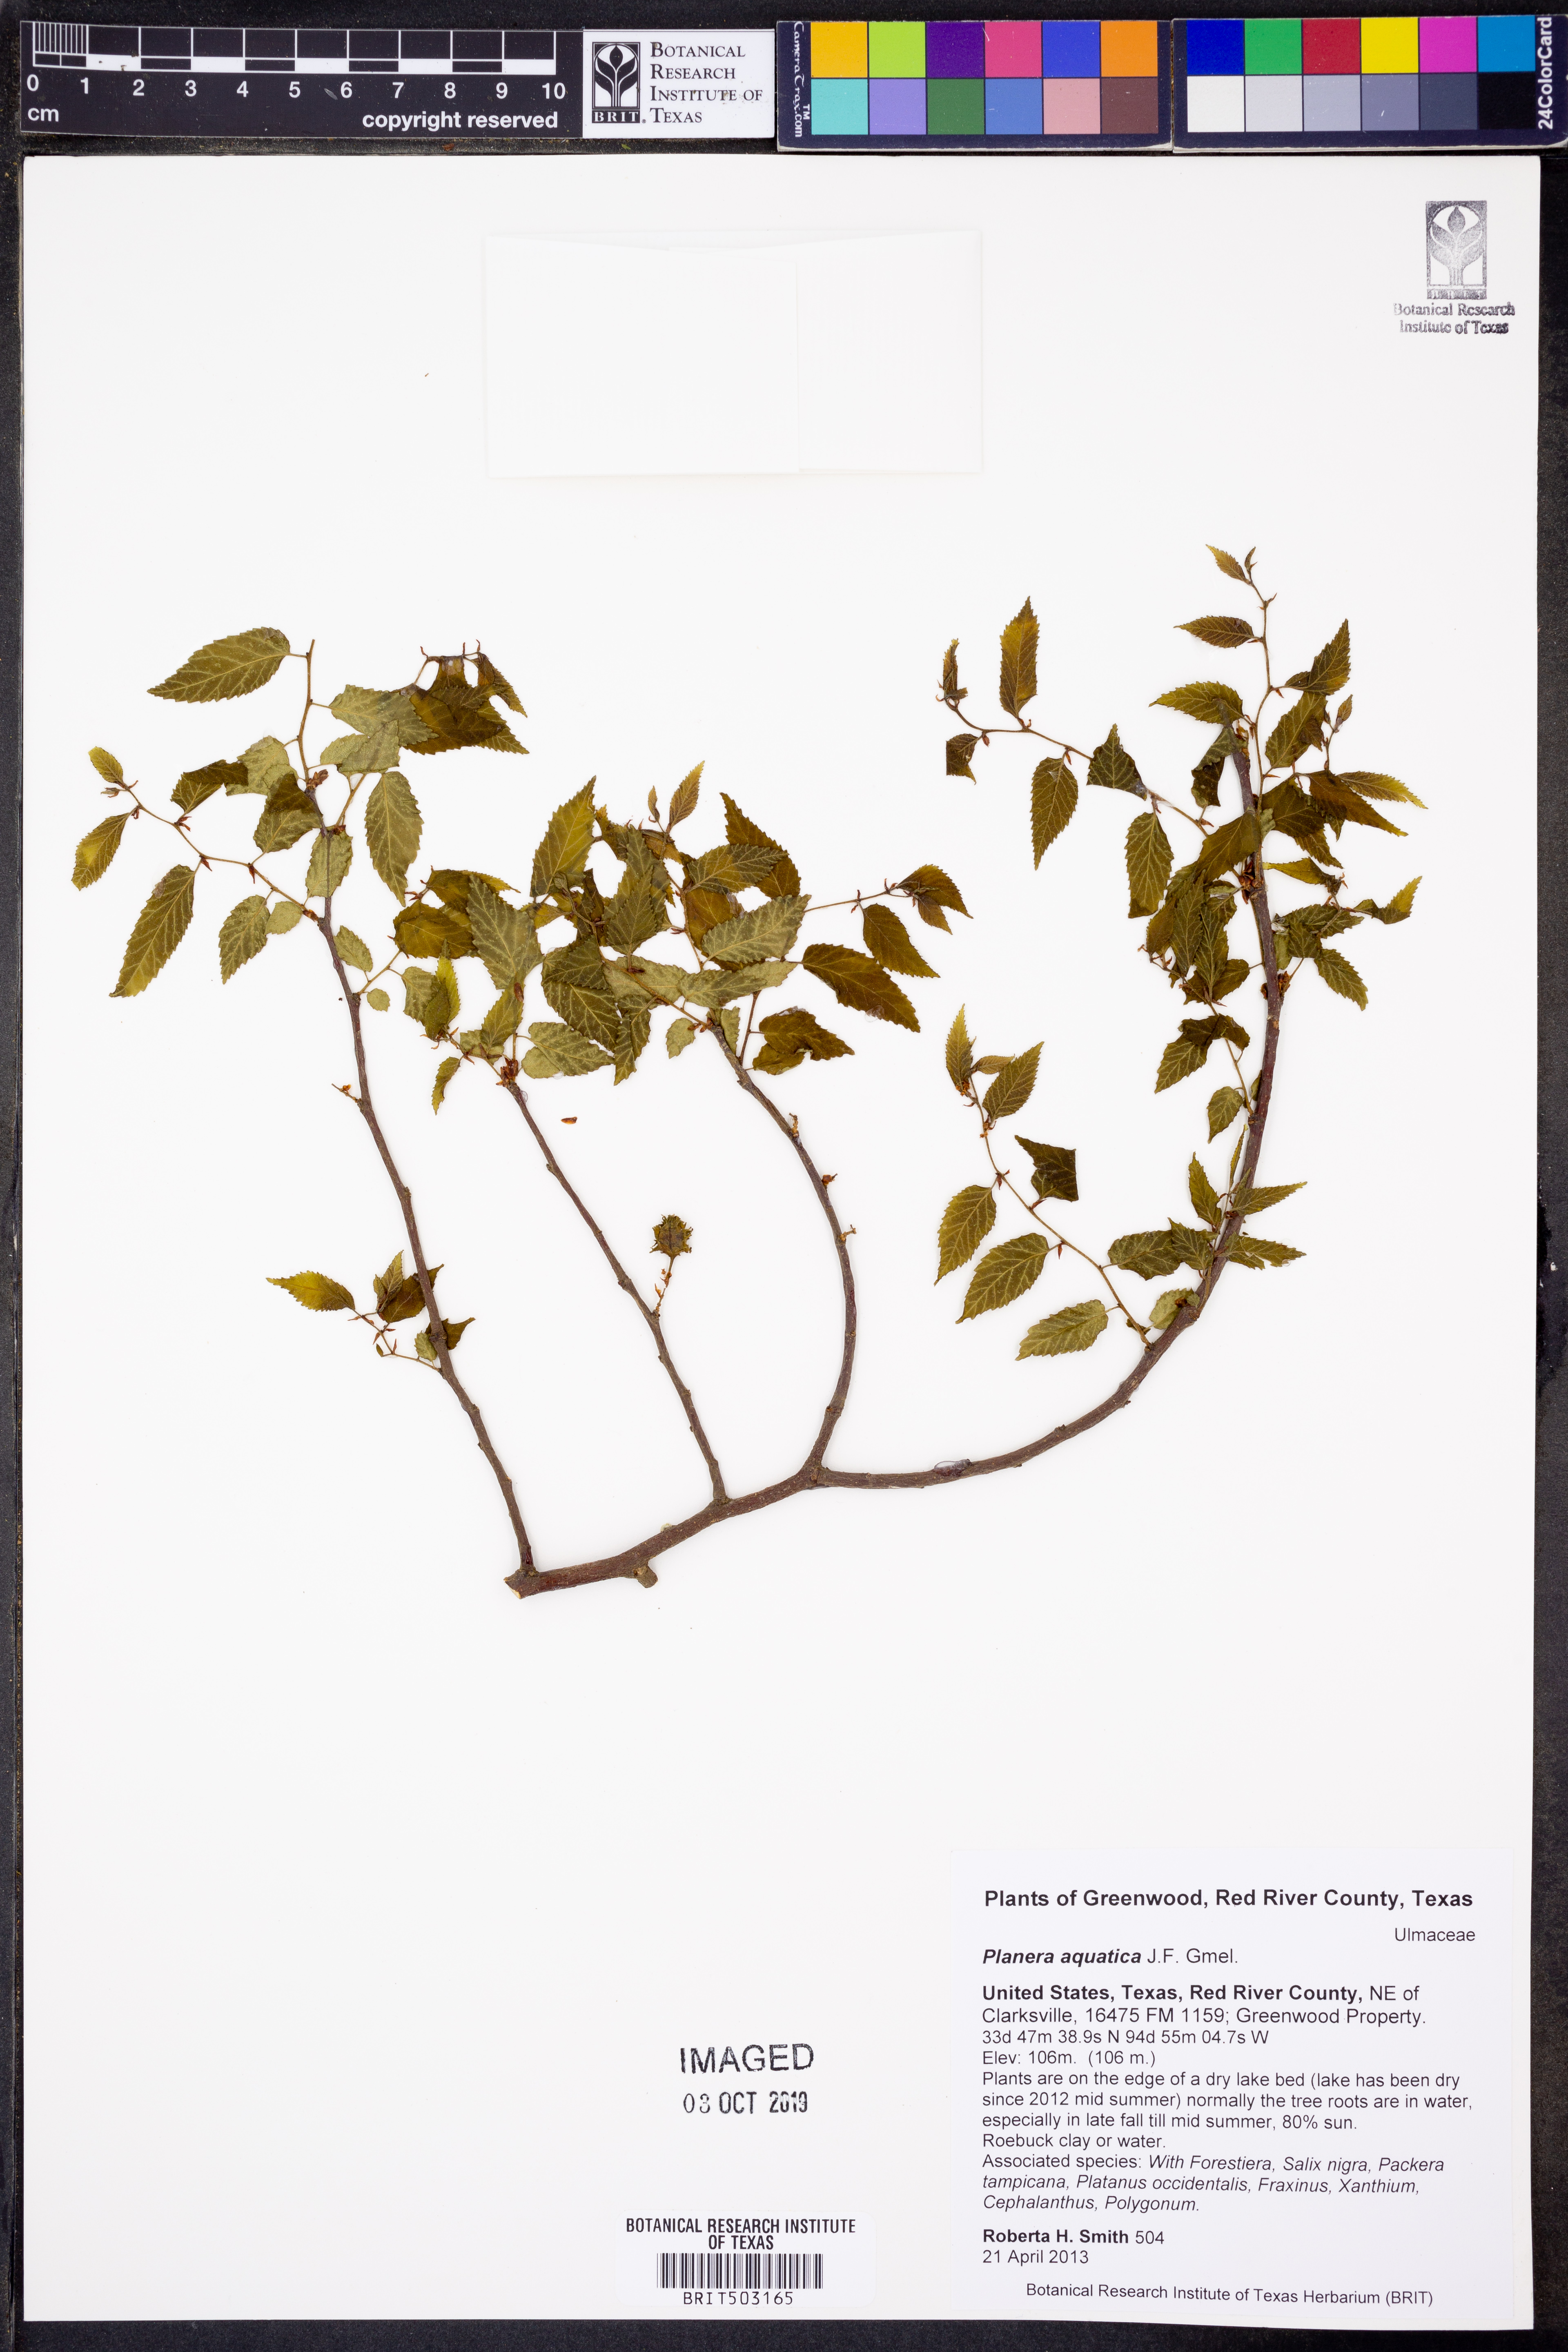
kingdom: Plantae
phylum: Tracheophyta
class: Magnoliopsida
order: Rosales
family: Ulmaceae
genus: Planera
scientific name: Planera aquatica
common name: Water-elm
